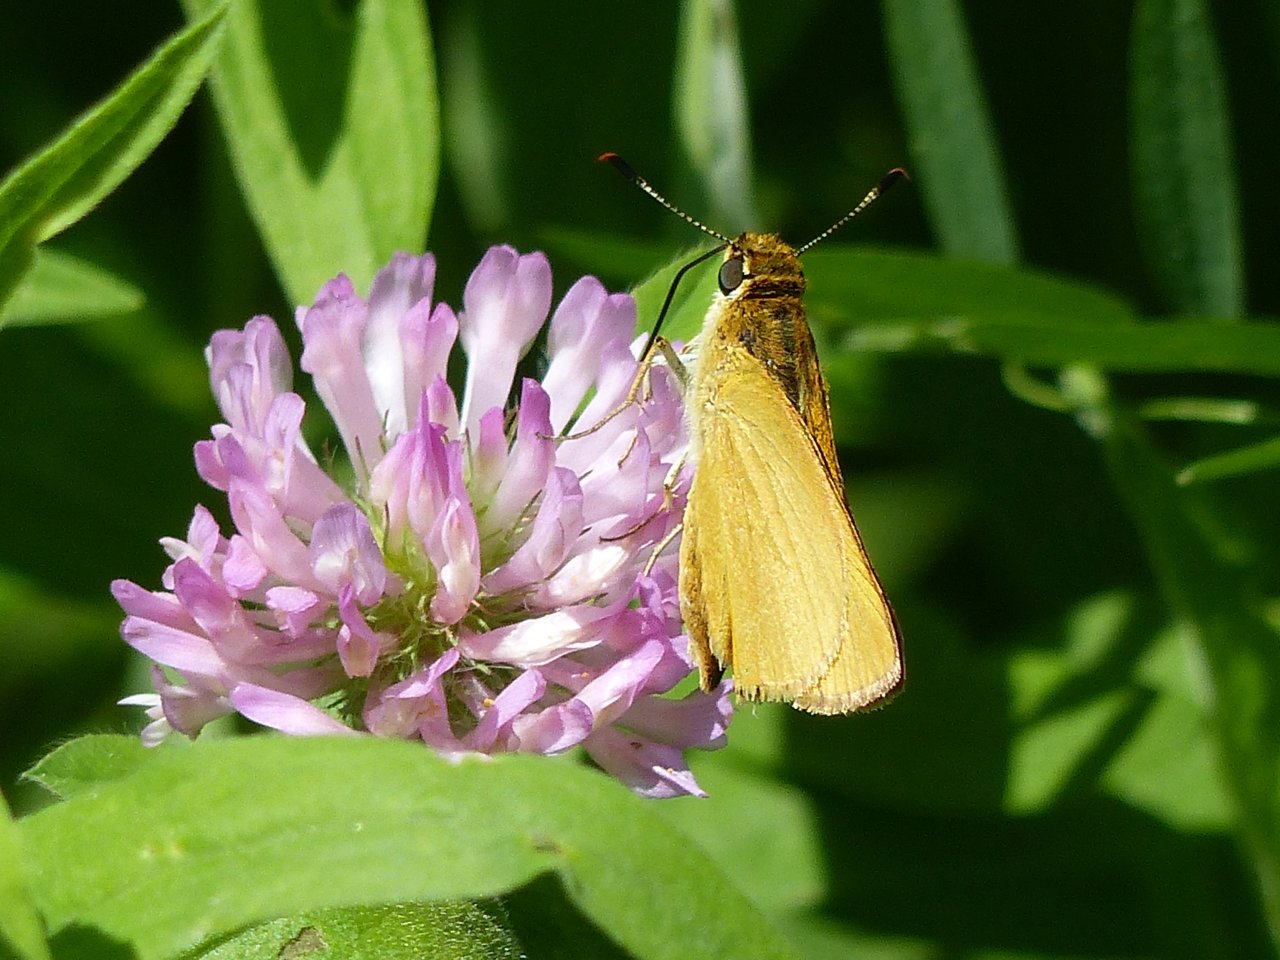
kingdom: Animalia
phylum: Arthropoda
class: Insecta
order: Lepidoptera
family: Hesperiidae
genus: Atrytone
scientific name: Atrytone delaware
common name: Delaware Skipper
